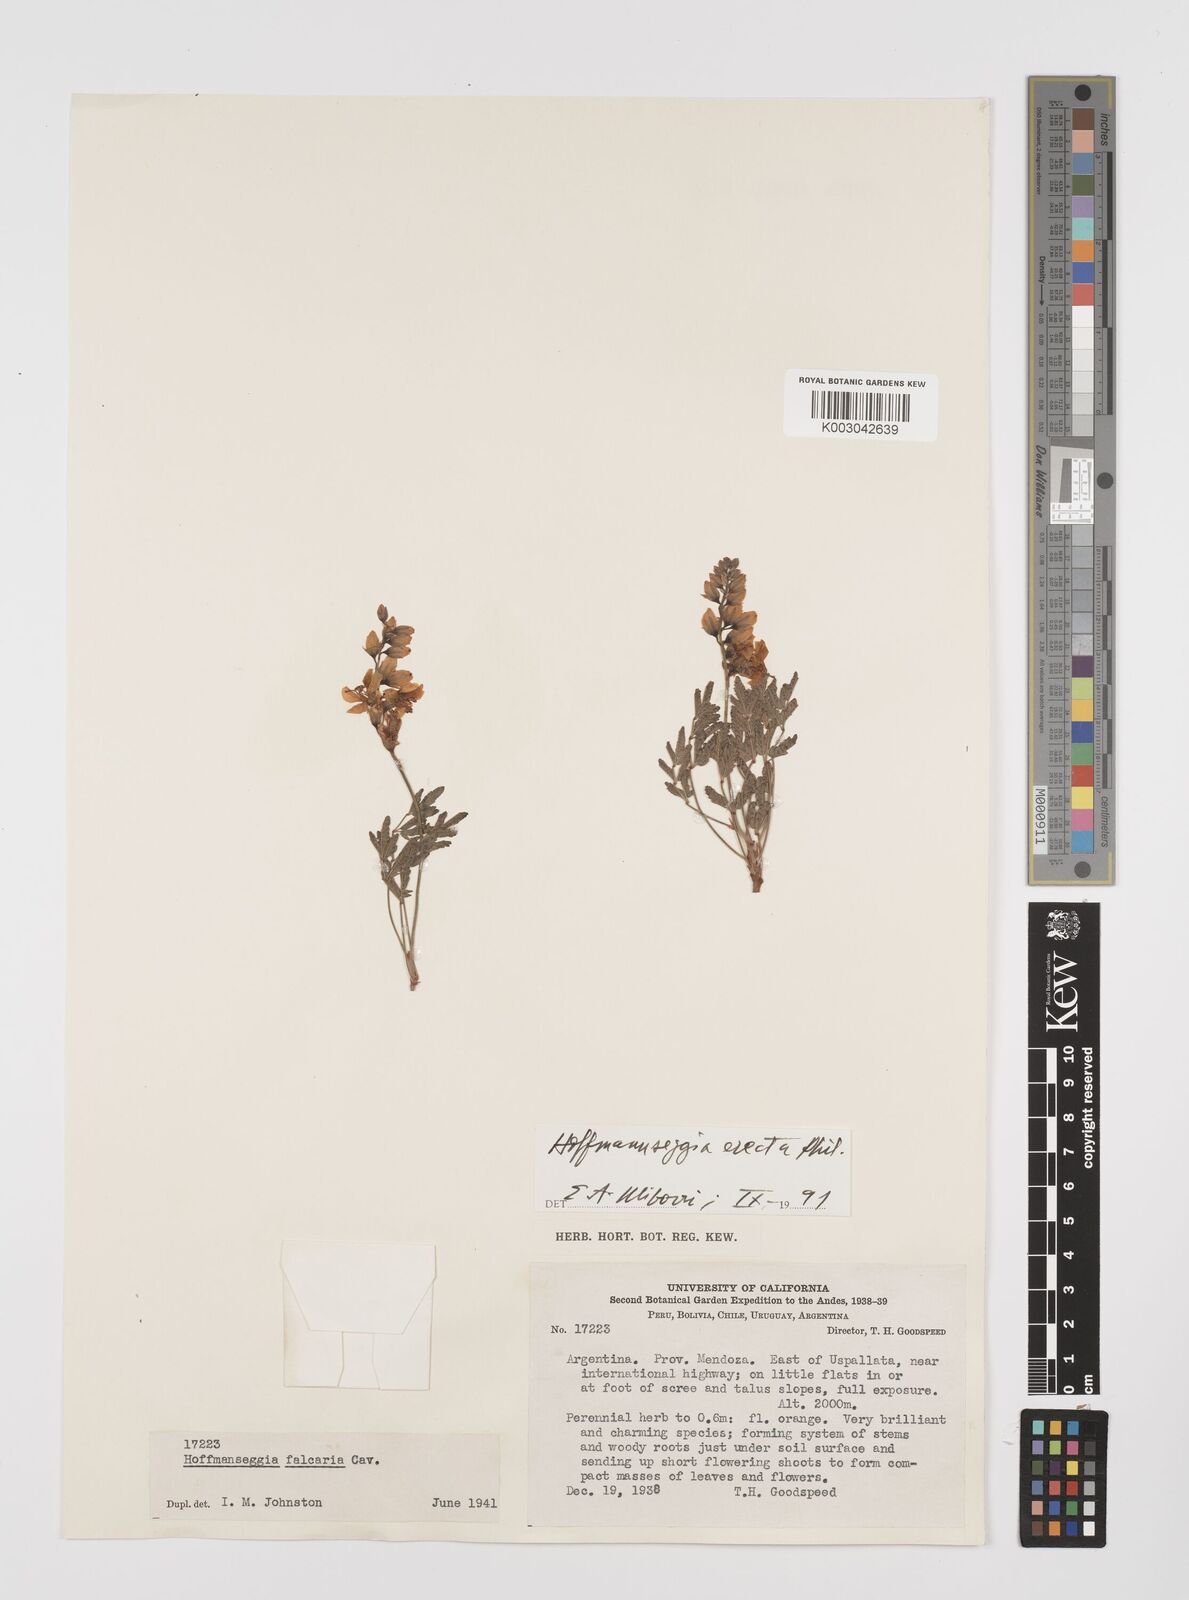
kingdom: Plantae
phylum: Tracheophyta
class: Magnoliopsida
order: Fabales
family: Fabaceae
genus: Hoffmannseggia
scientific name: Hoffmannseggia erecta
